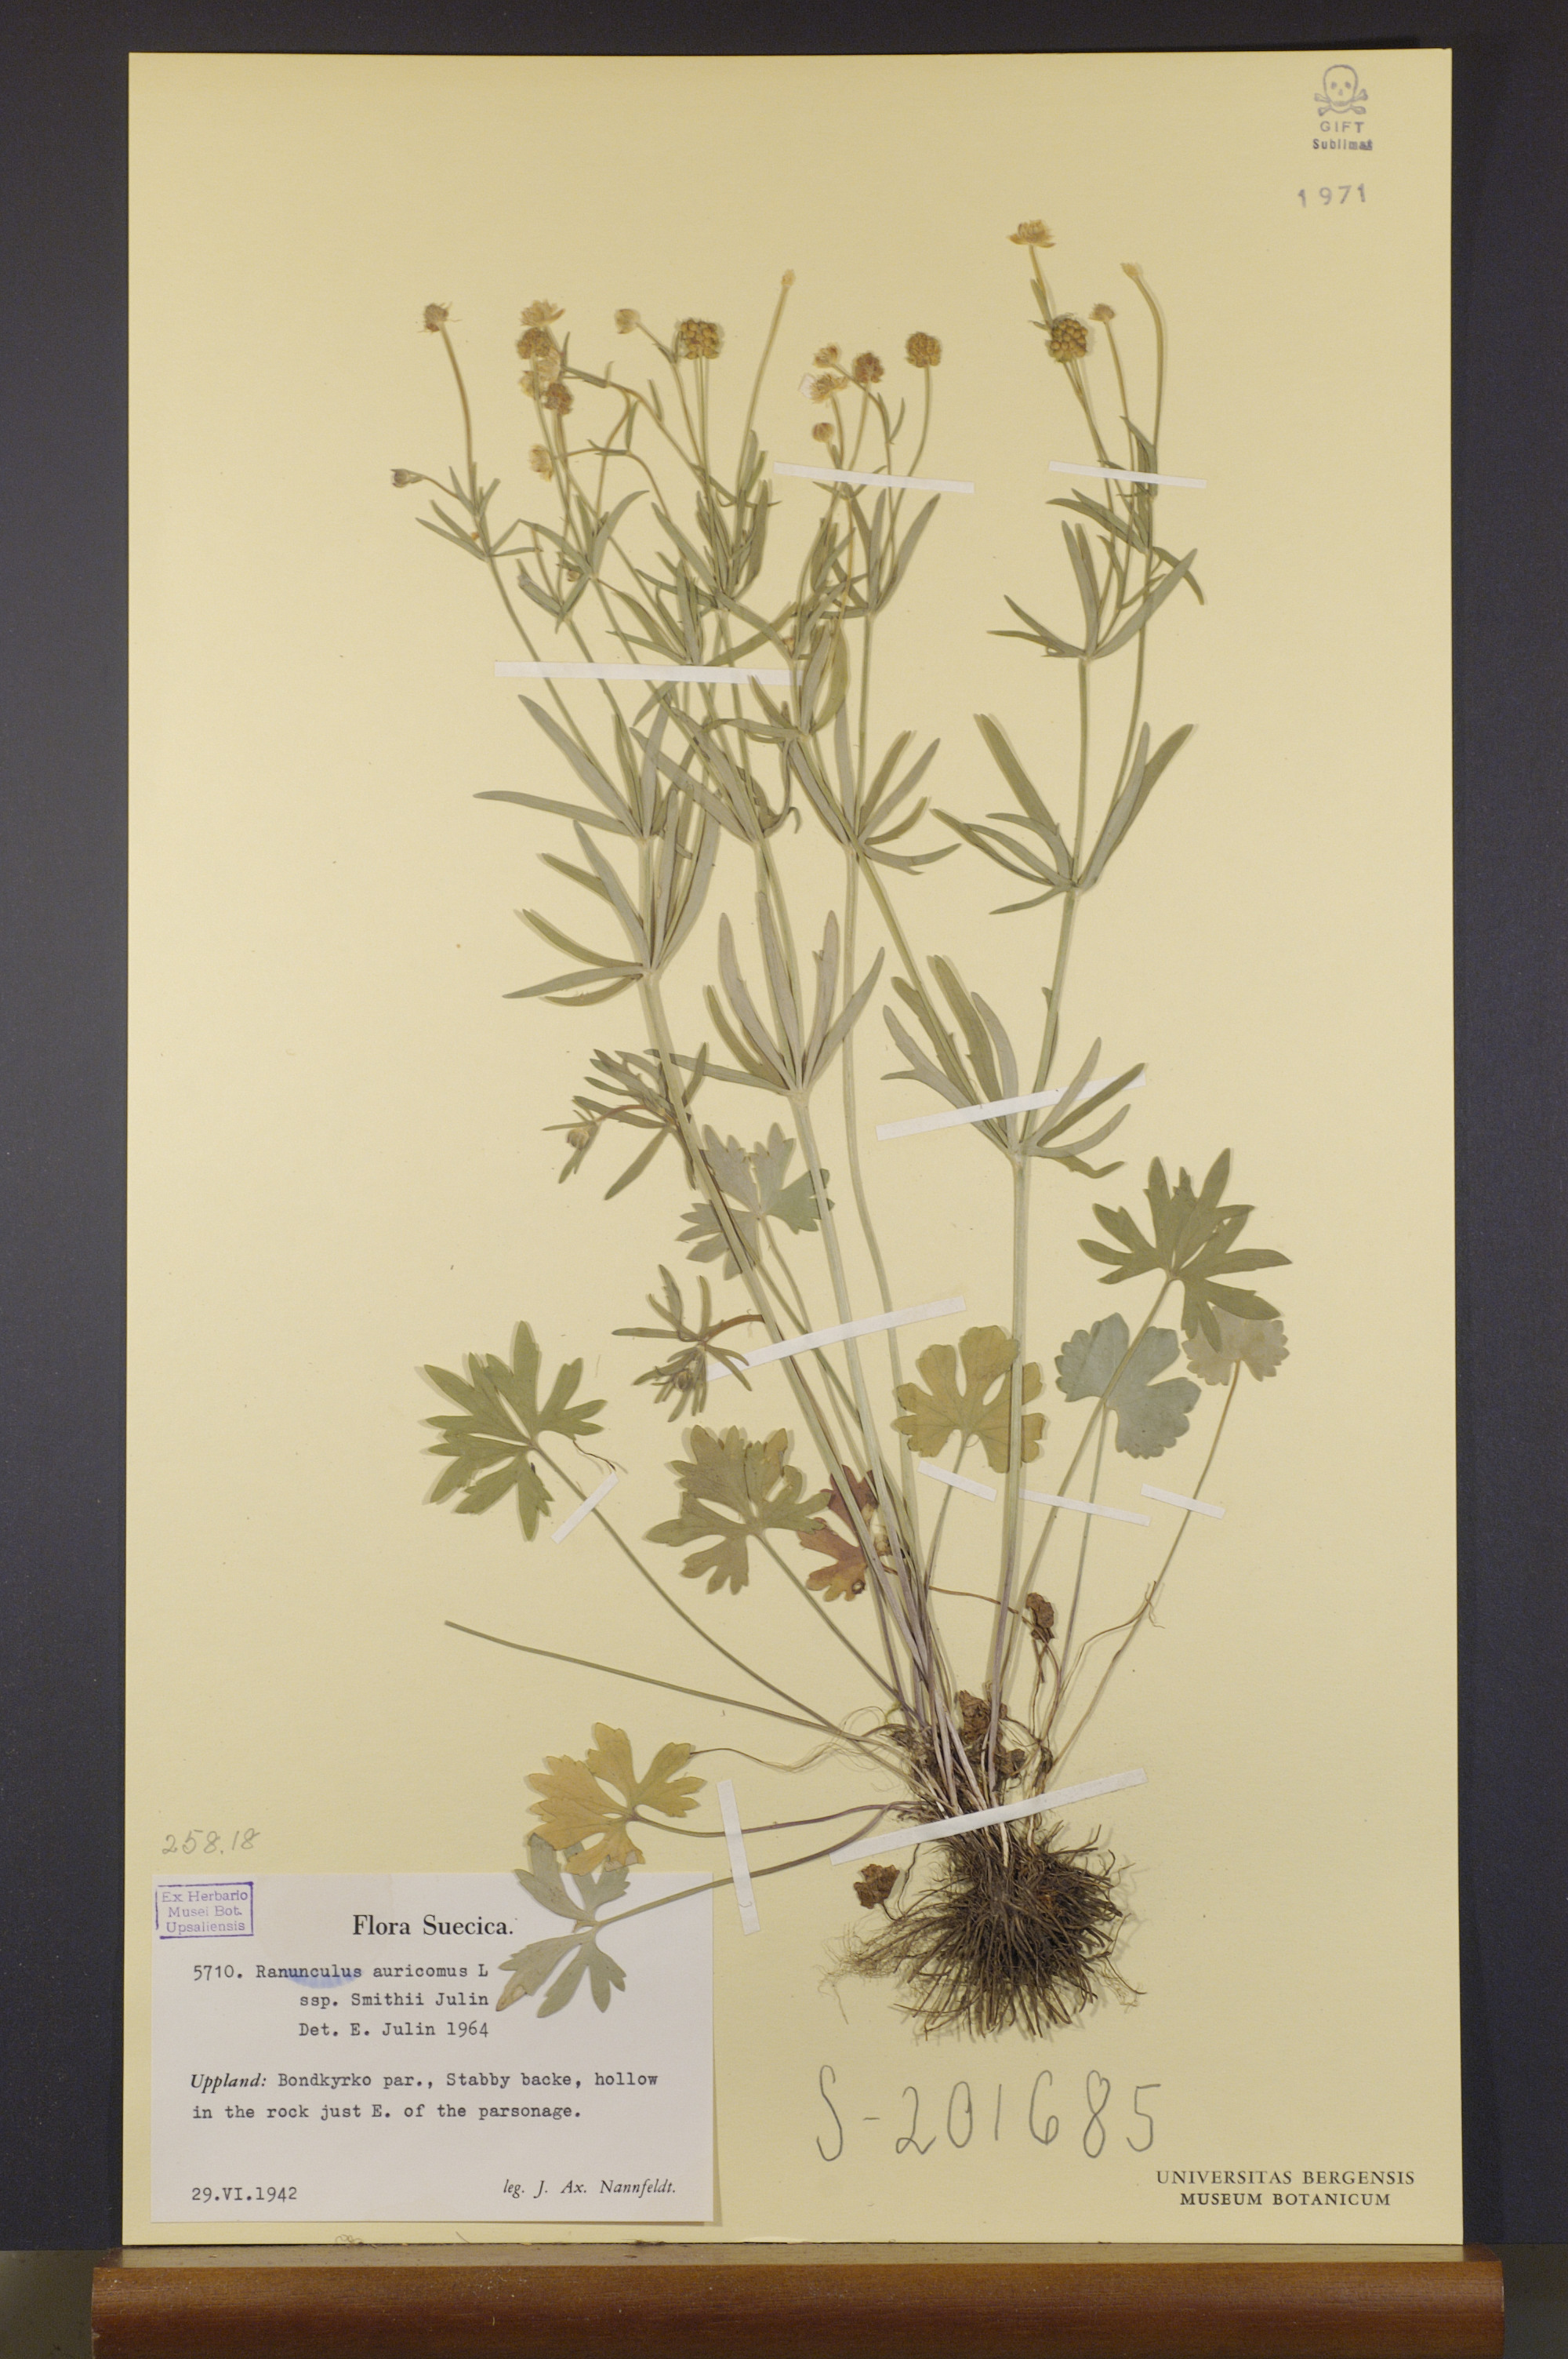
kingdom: Plantae
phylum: Tracheophyta
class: Magnoliopsida
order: Ranunculales
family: Ranunculaceae
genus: Ranunculus
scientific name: Ranunculus pulchridentatus
